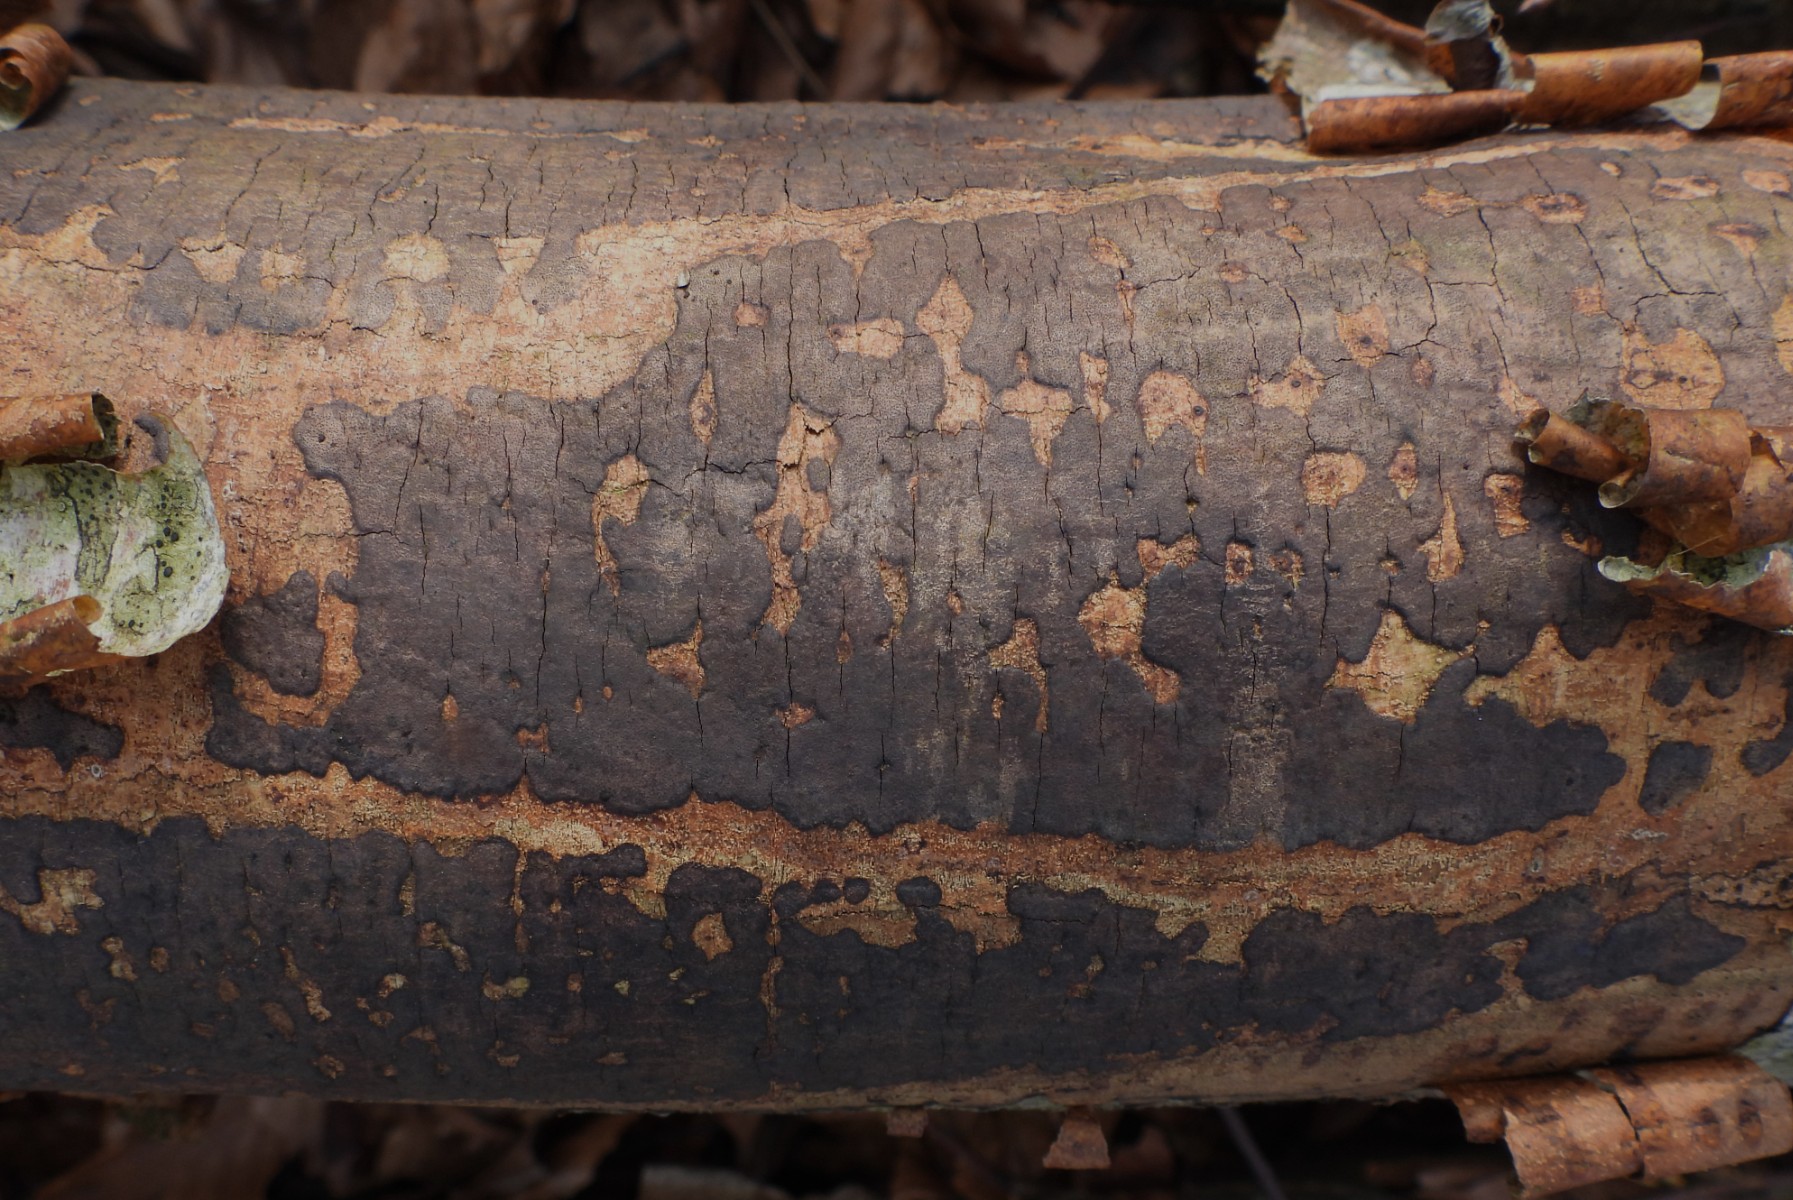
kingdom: Fungi
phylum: Ascomycota
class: Sordariomycetes
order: Xylariales
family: Diatrypaceae
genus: Diatrype
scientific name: Diatrype decorticata
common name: barksprænger-kulskorpe
